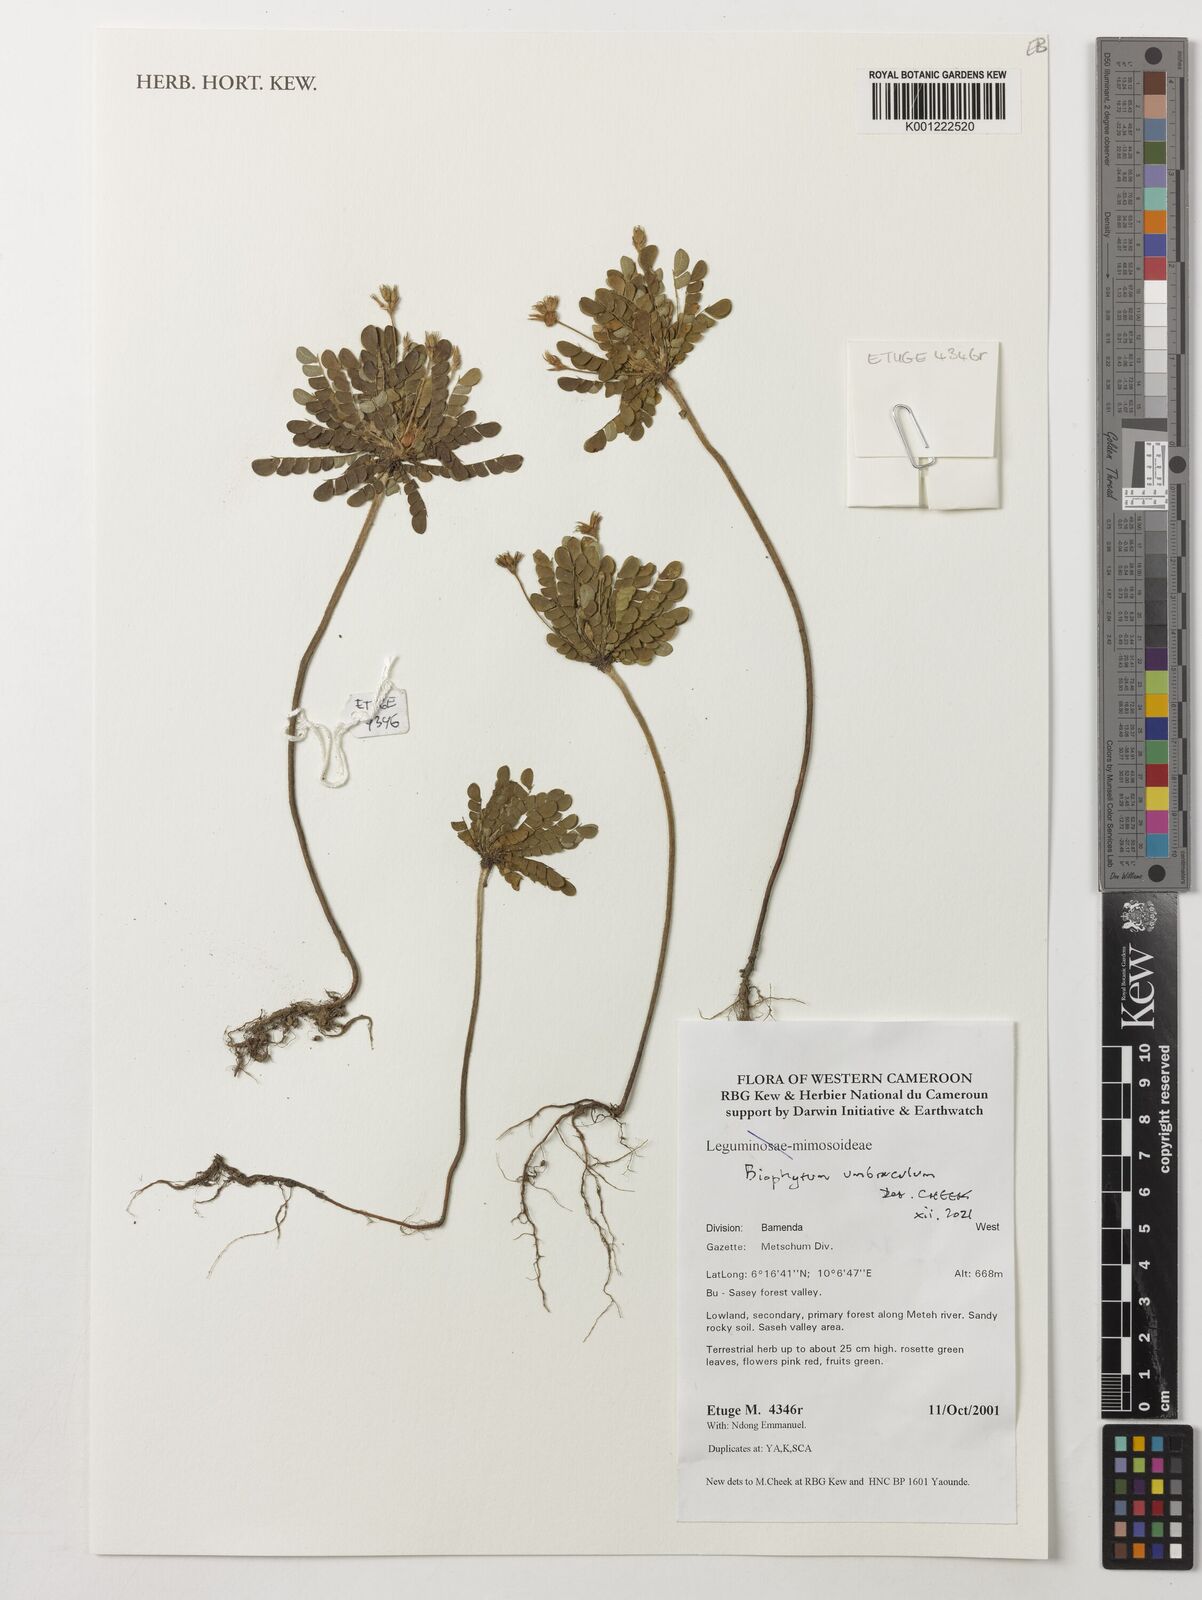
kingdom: Plantae
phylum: Tracheophyta
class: Magnoliopsida
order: Oxalidales
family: Oxalidaceae
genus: Biophytum
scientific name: Biophytum umbraculum
